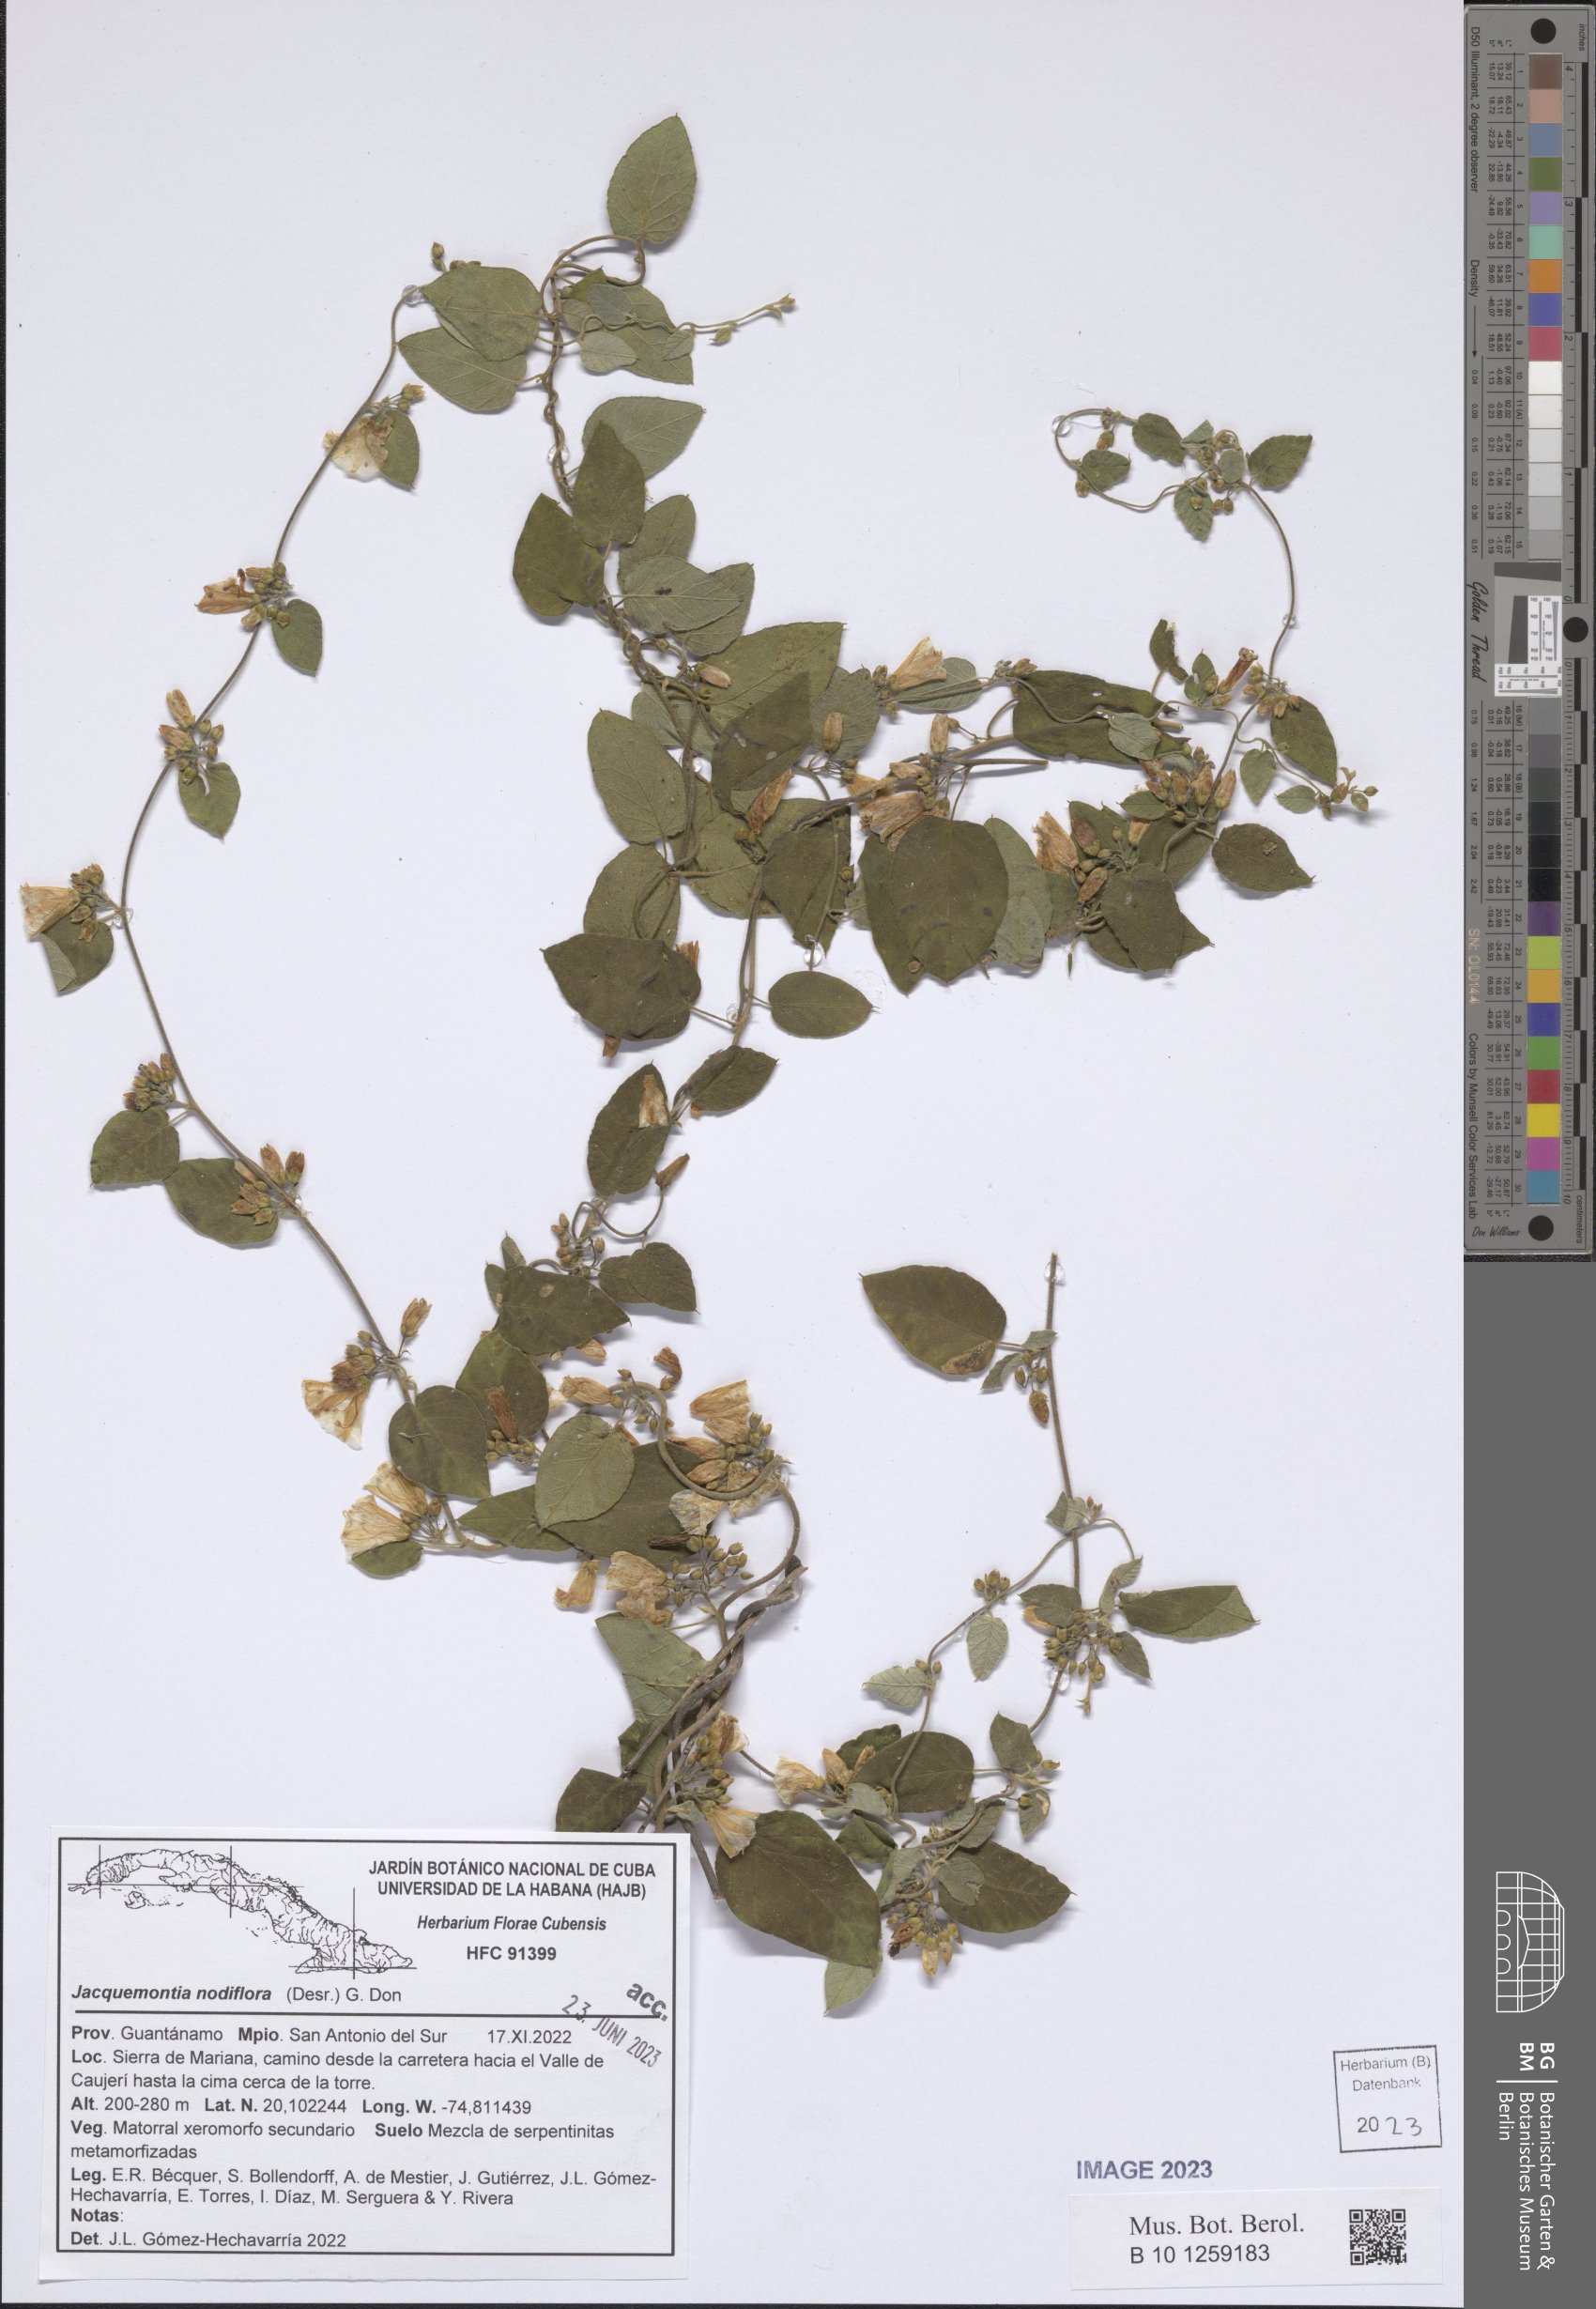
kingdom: Plantae
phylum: Tracheophyta
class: Magnoliopsida
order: Solanales
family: Convolvulaceae
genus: Jacquemontia
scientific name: Jacquemontia nodiflora
